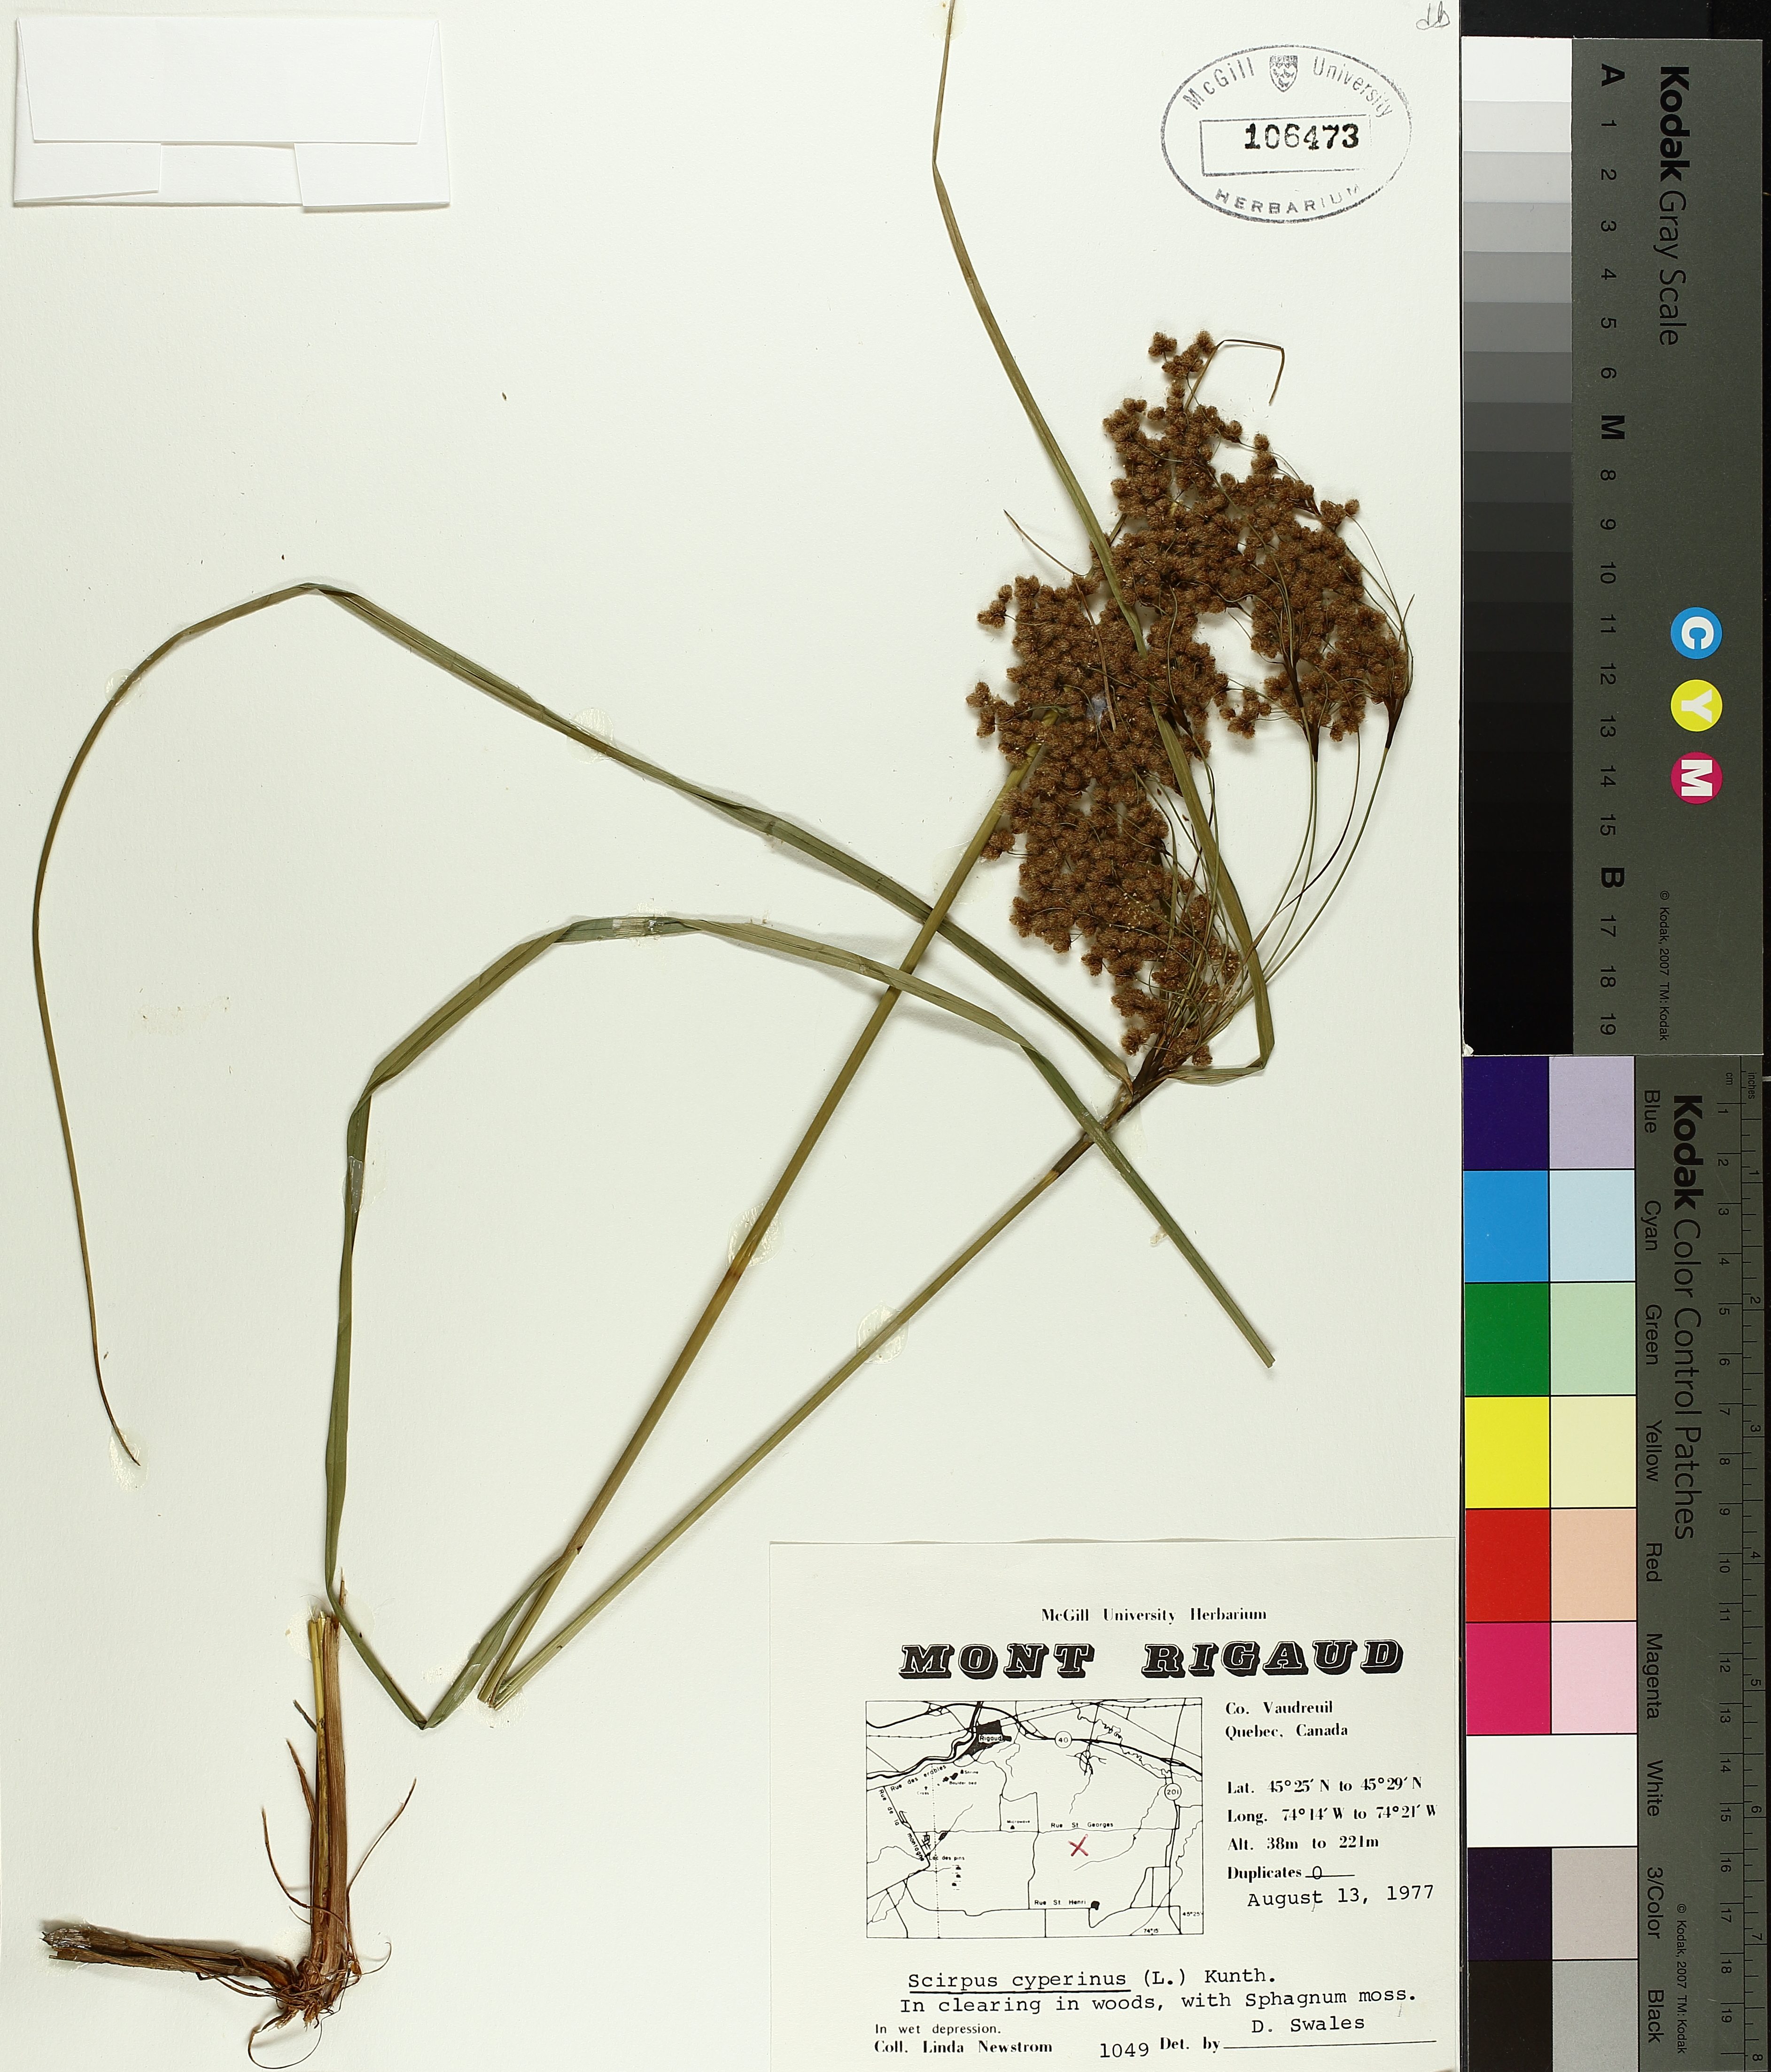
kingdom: Plantae
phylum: Tracheophyta
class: Liliopsida
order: Poales
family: Cyperaceae
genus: Scirpus
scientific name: Scirpus cyperinus
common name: Black-sheathed bulrush
